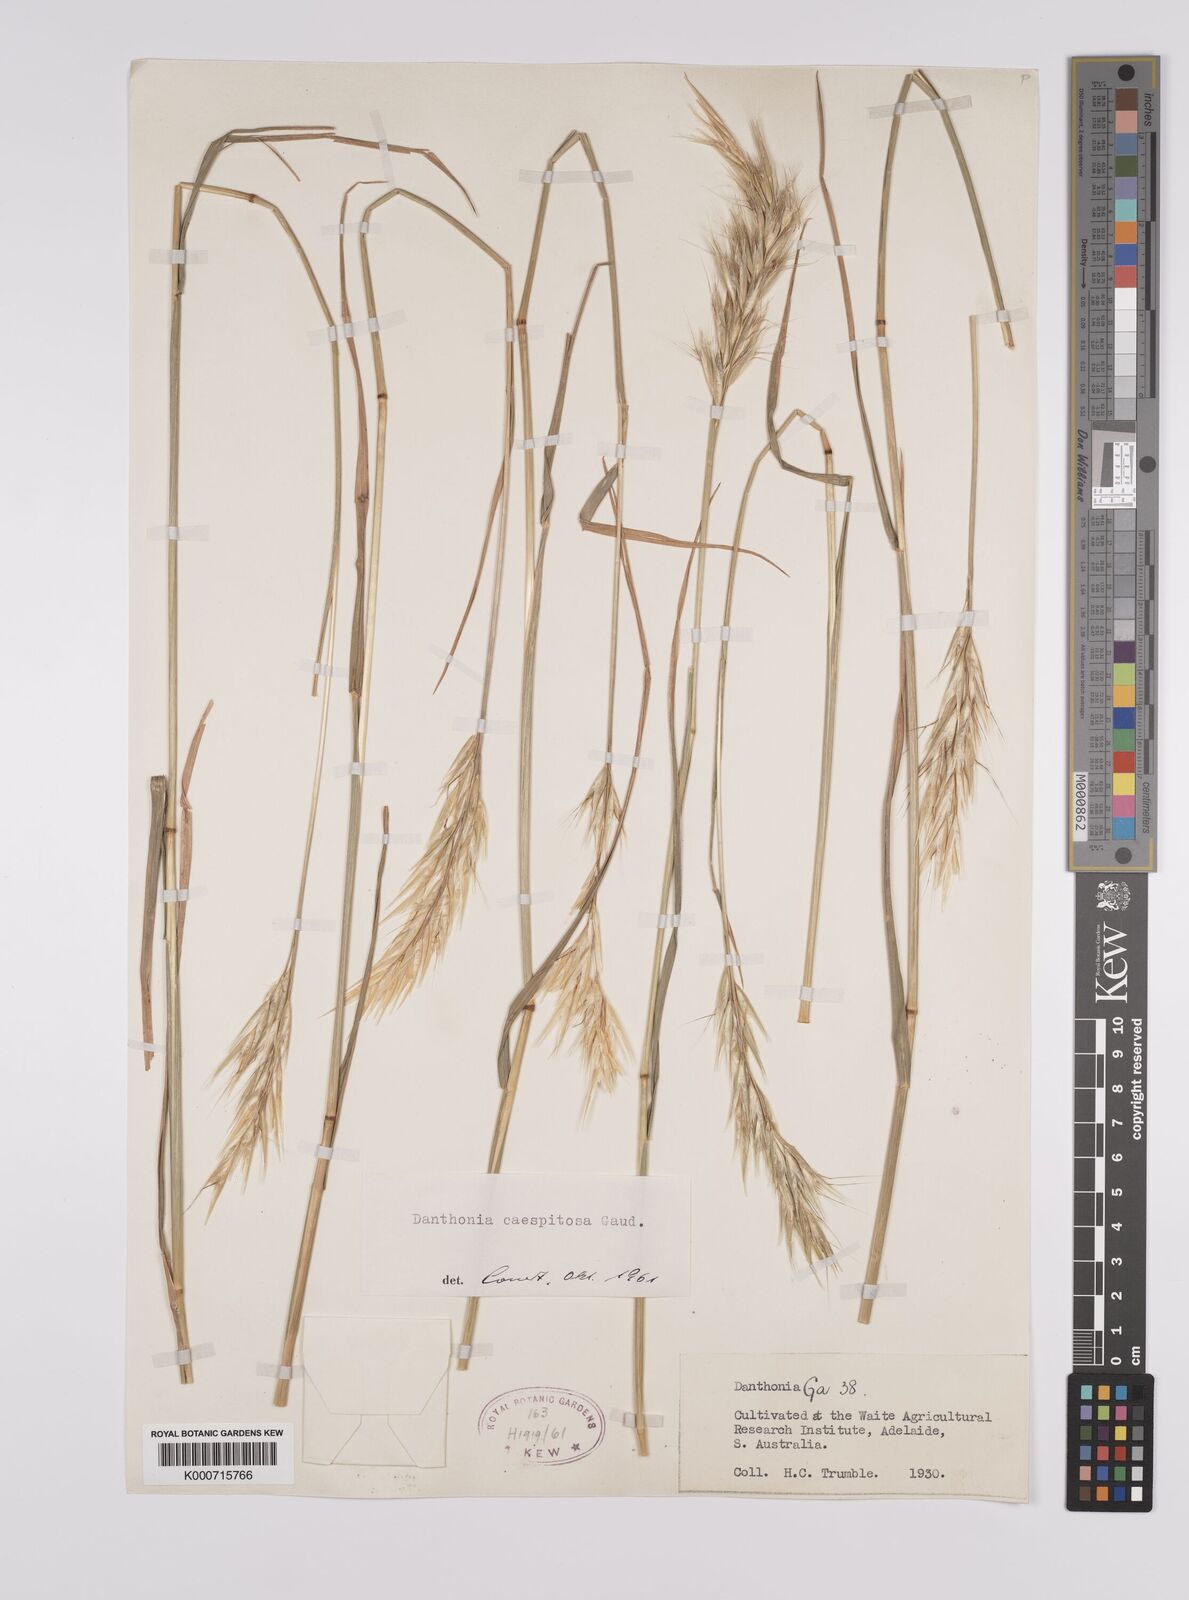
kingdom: Plantae
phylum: Tracheophyta
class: Liliopsida
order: Poales
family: Poaceae
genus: Rytidosperma
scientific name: Rytidosperma caespitosum
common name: Tufted wallaby grass
